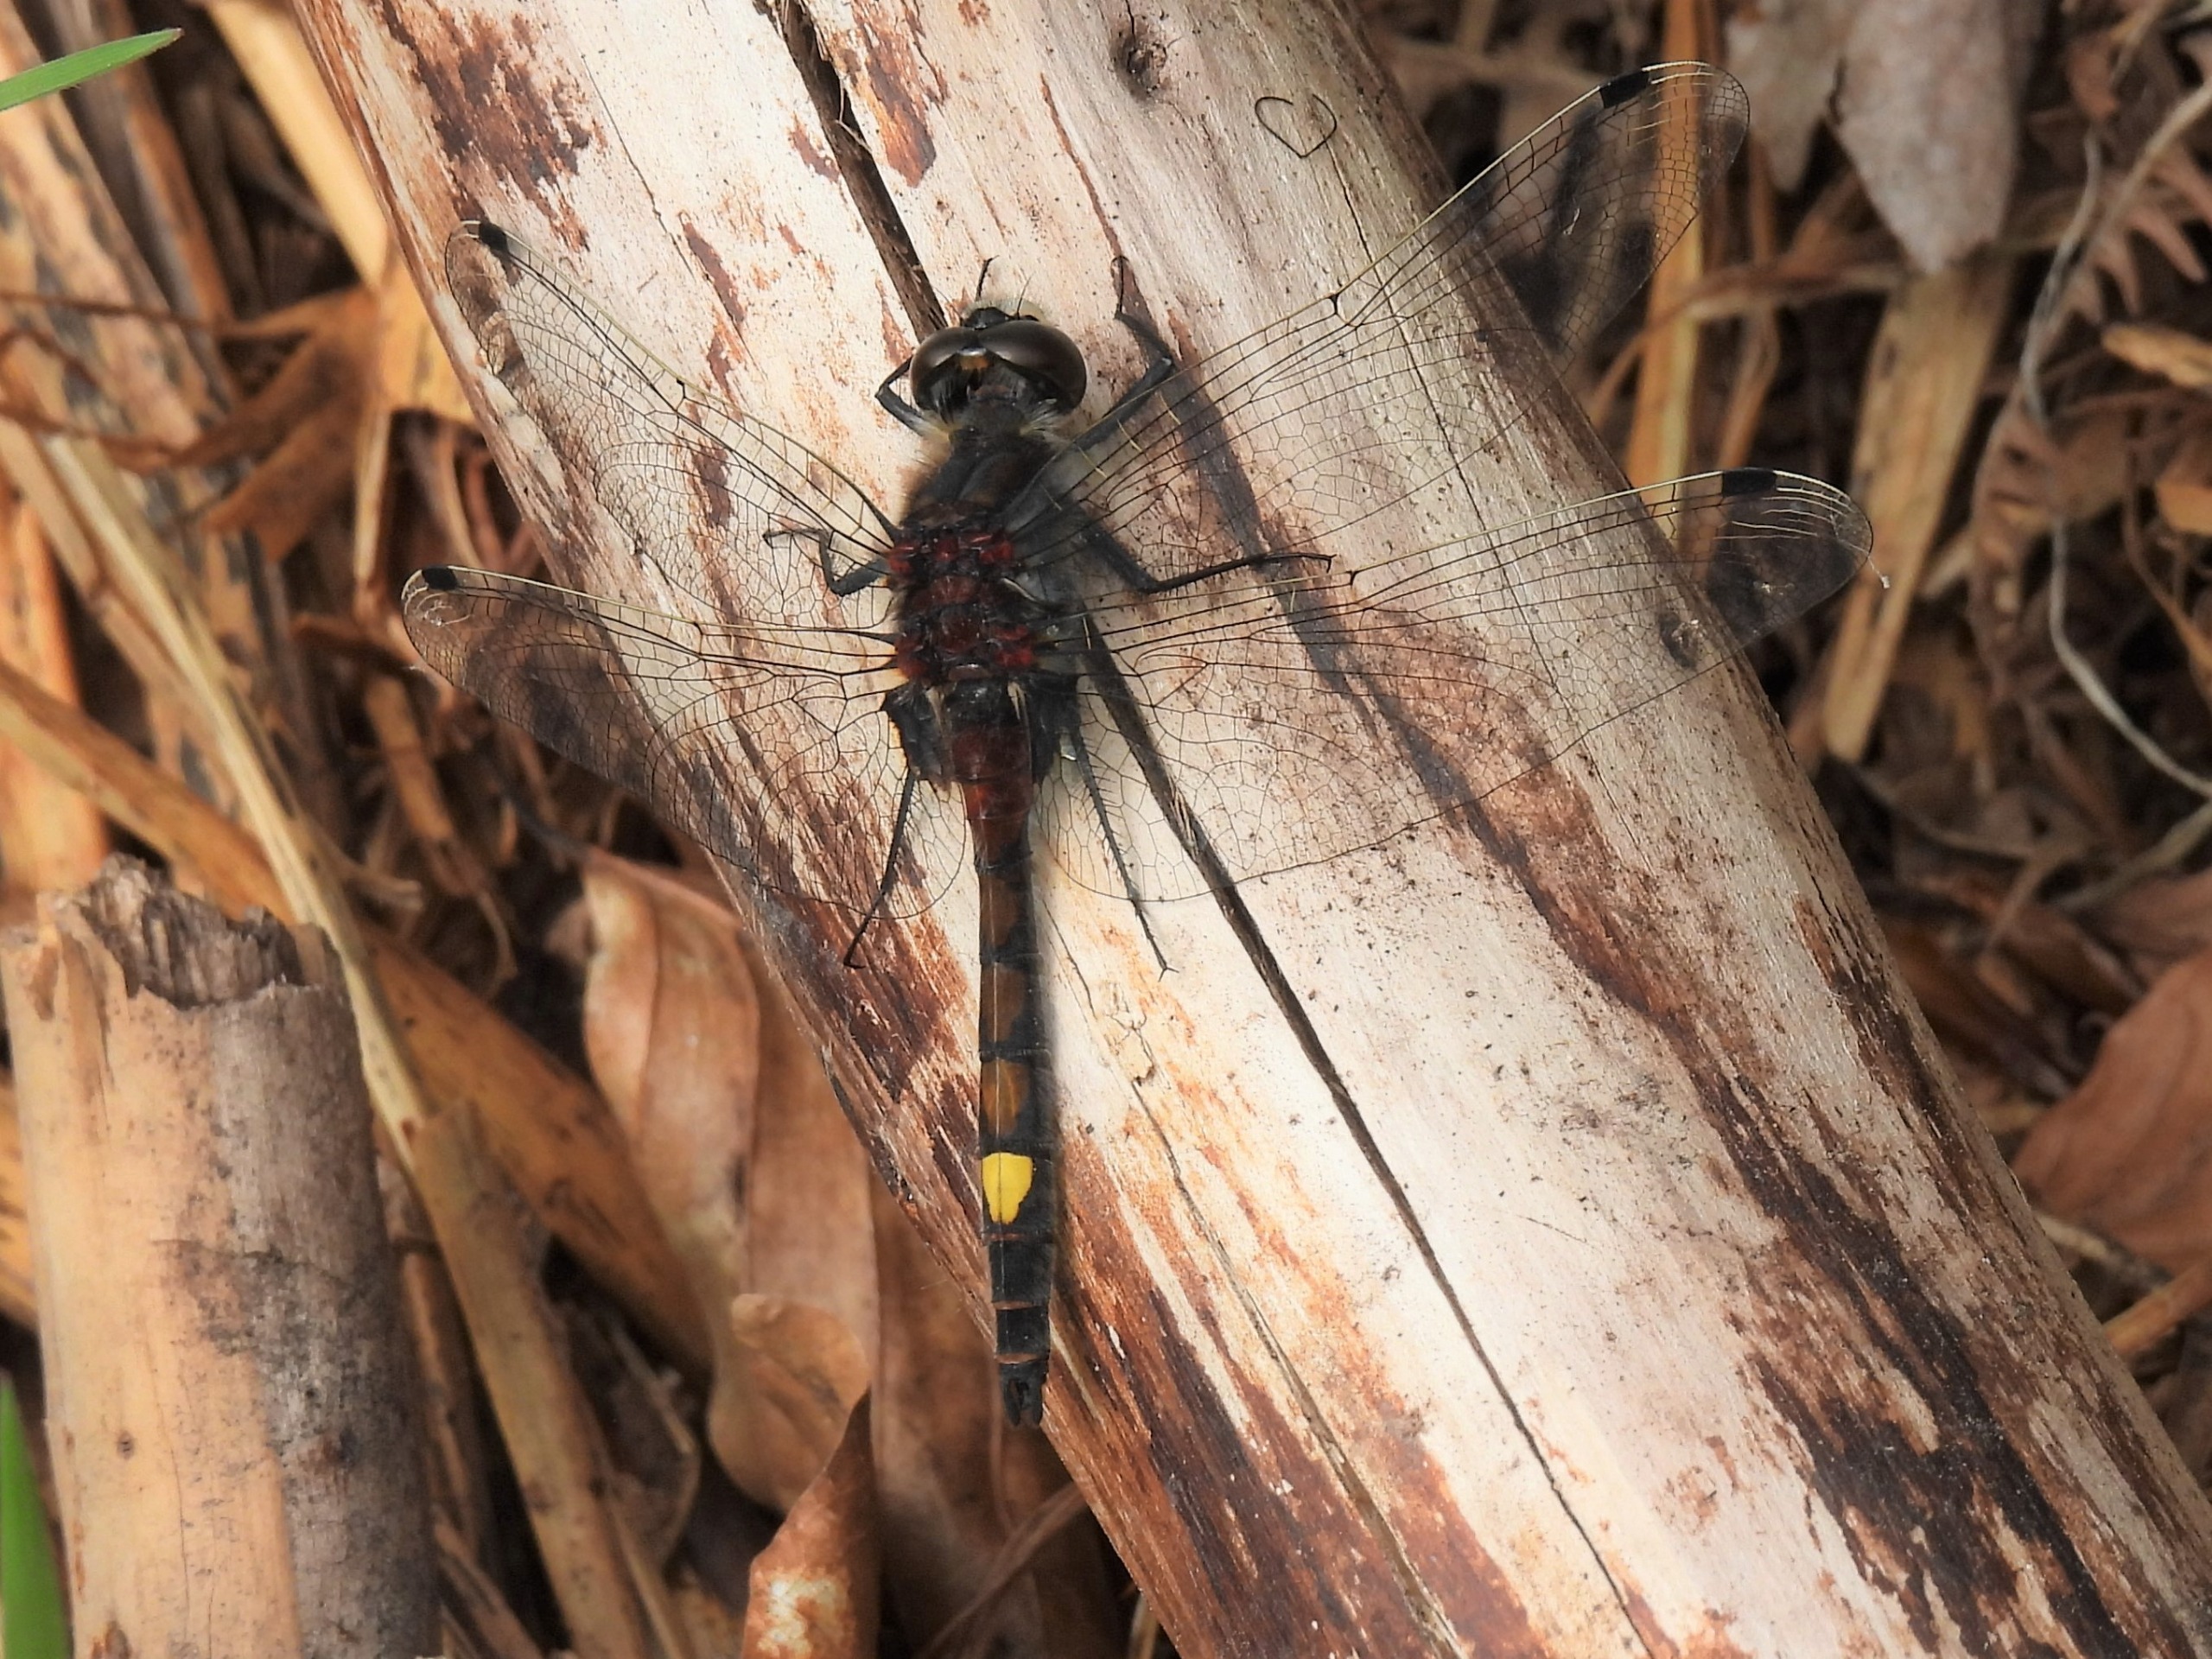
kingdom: Animalia
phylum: Arthropoda
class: Insecta
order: Odonata
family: Libellulidae
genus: Leucorrhinia
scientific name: Leucorrhinia pectoralis
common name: Stor kærguldsmed
